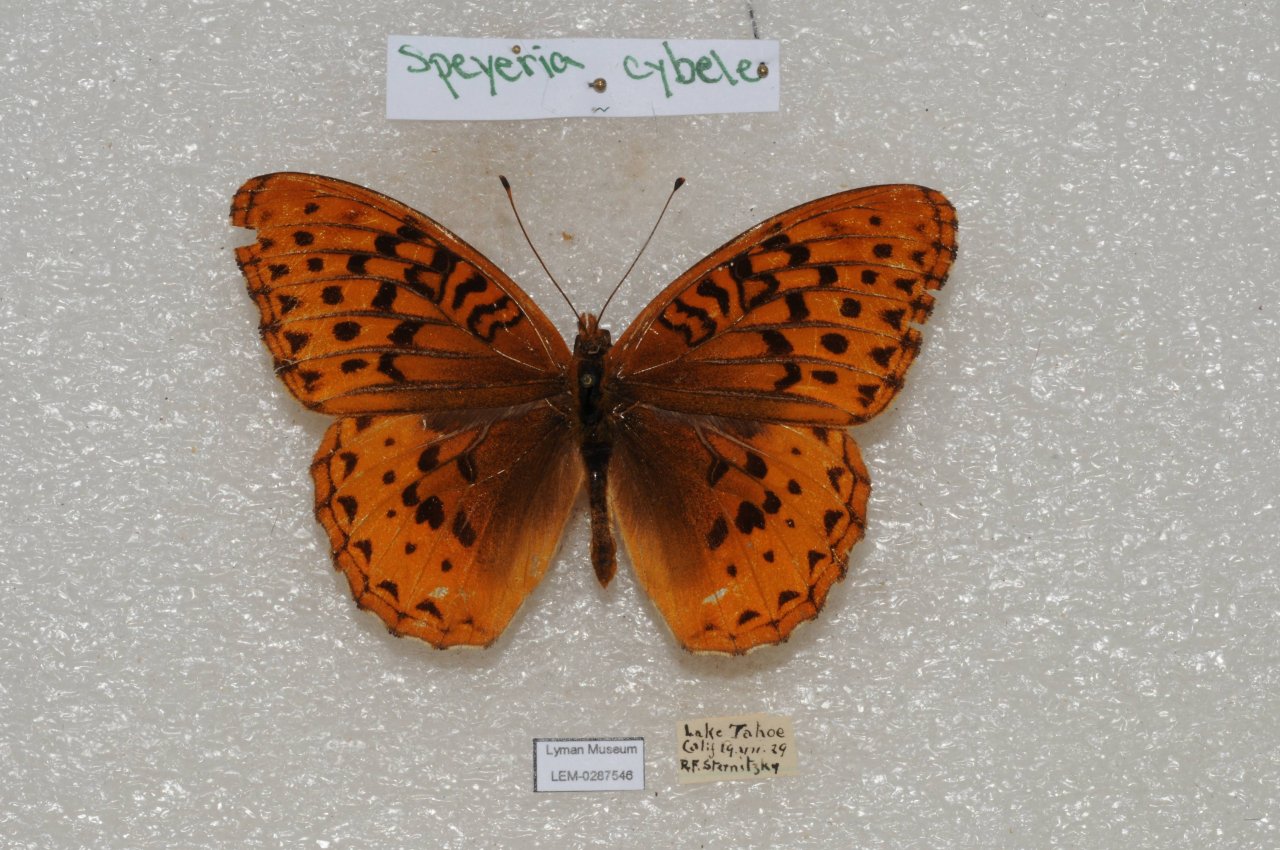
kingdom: Animalia
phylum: Arthropoda
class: Insecta
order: Lepidoptera
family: Nymphalidae
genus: Speyeria
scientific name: Speyeria cybele
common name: Great Spangled Fritillary
